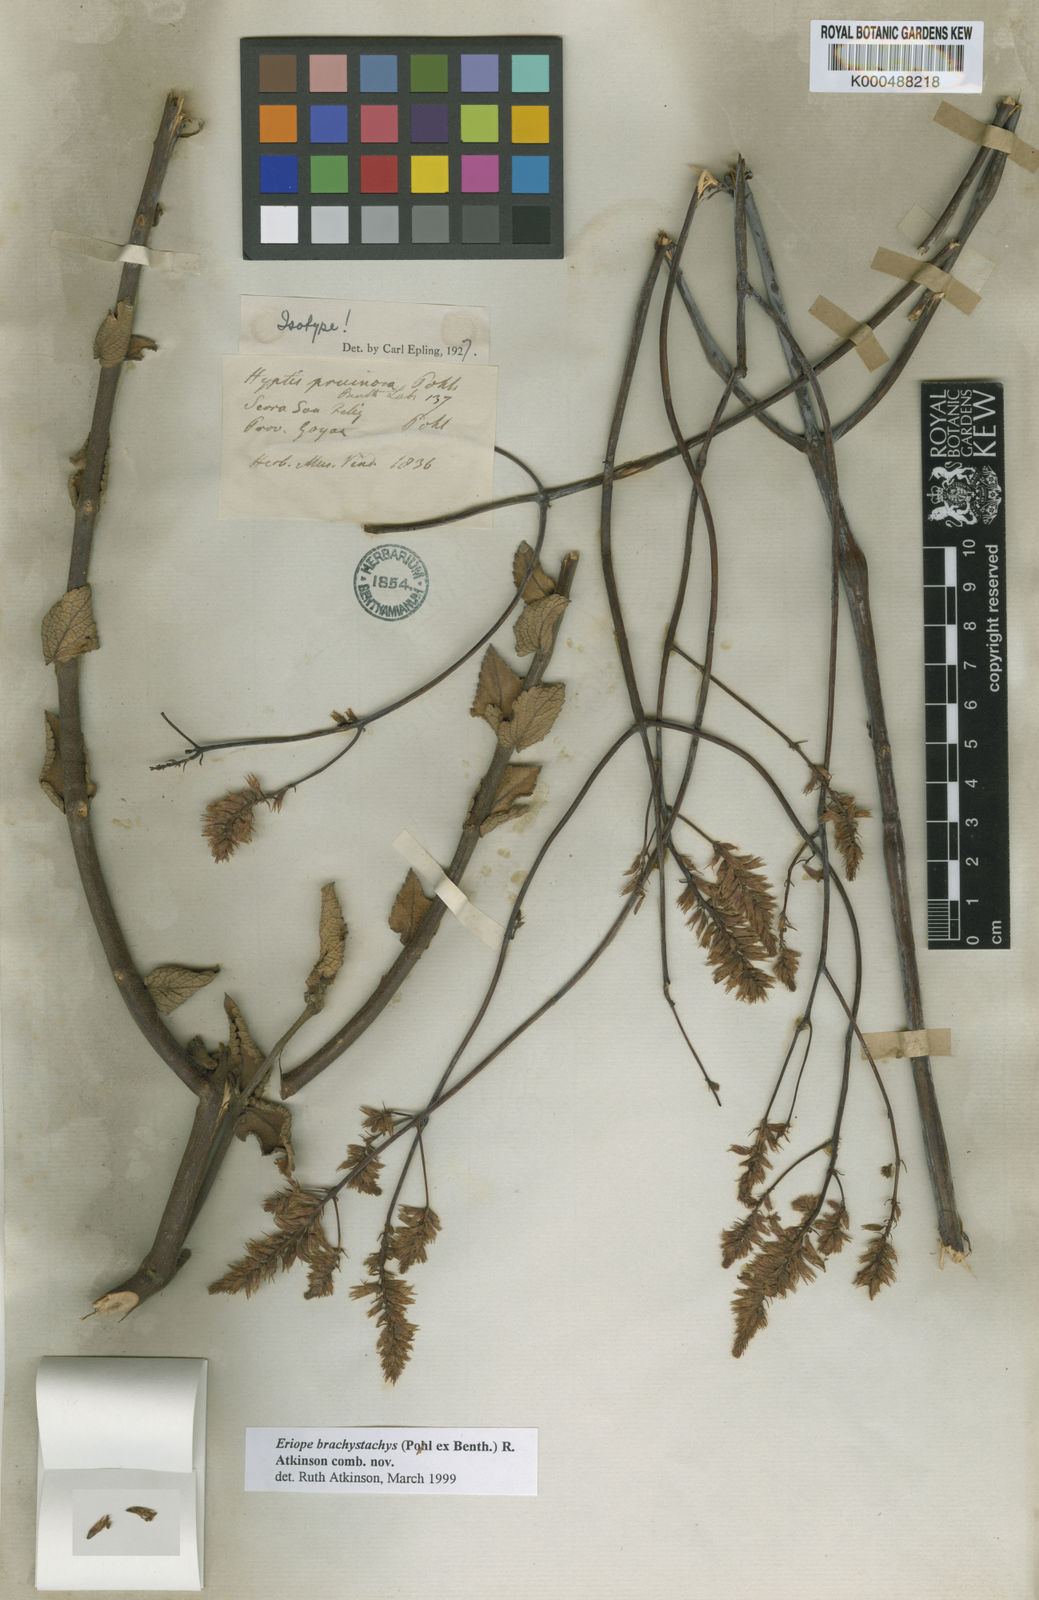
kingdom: Plantae
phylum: Tracheophyta
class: Magnoliopsida
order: Lamiales
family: Lamiaceae
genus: Hypenia
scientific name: Hypenia brachystachys
